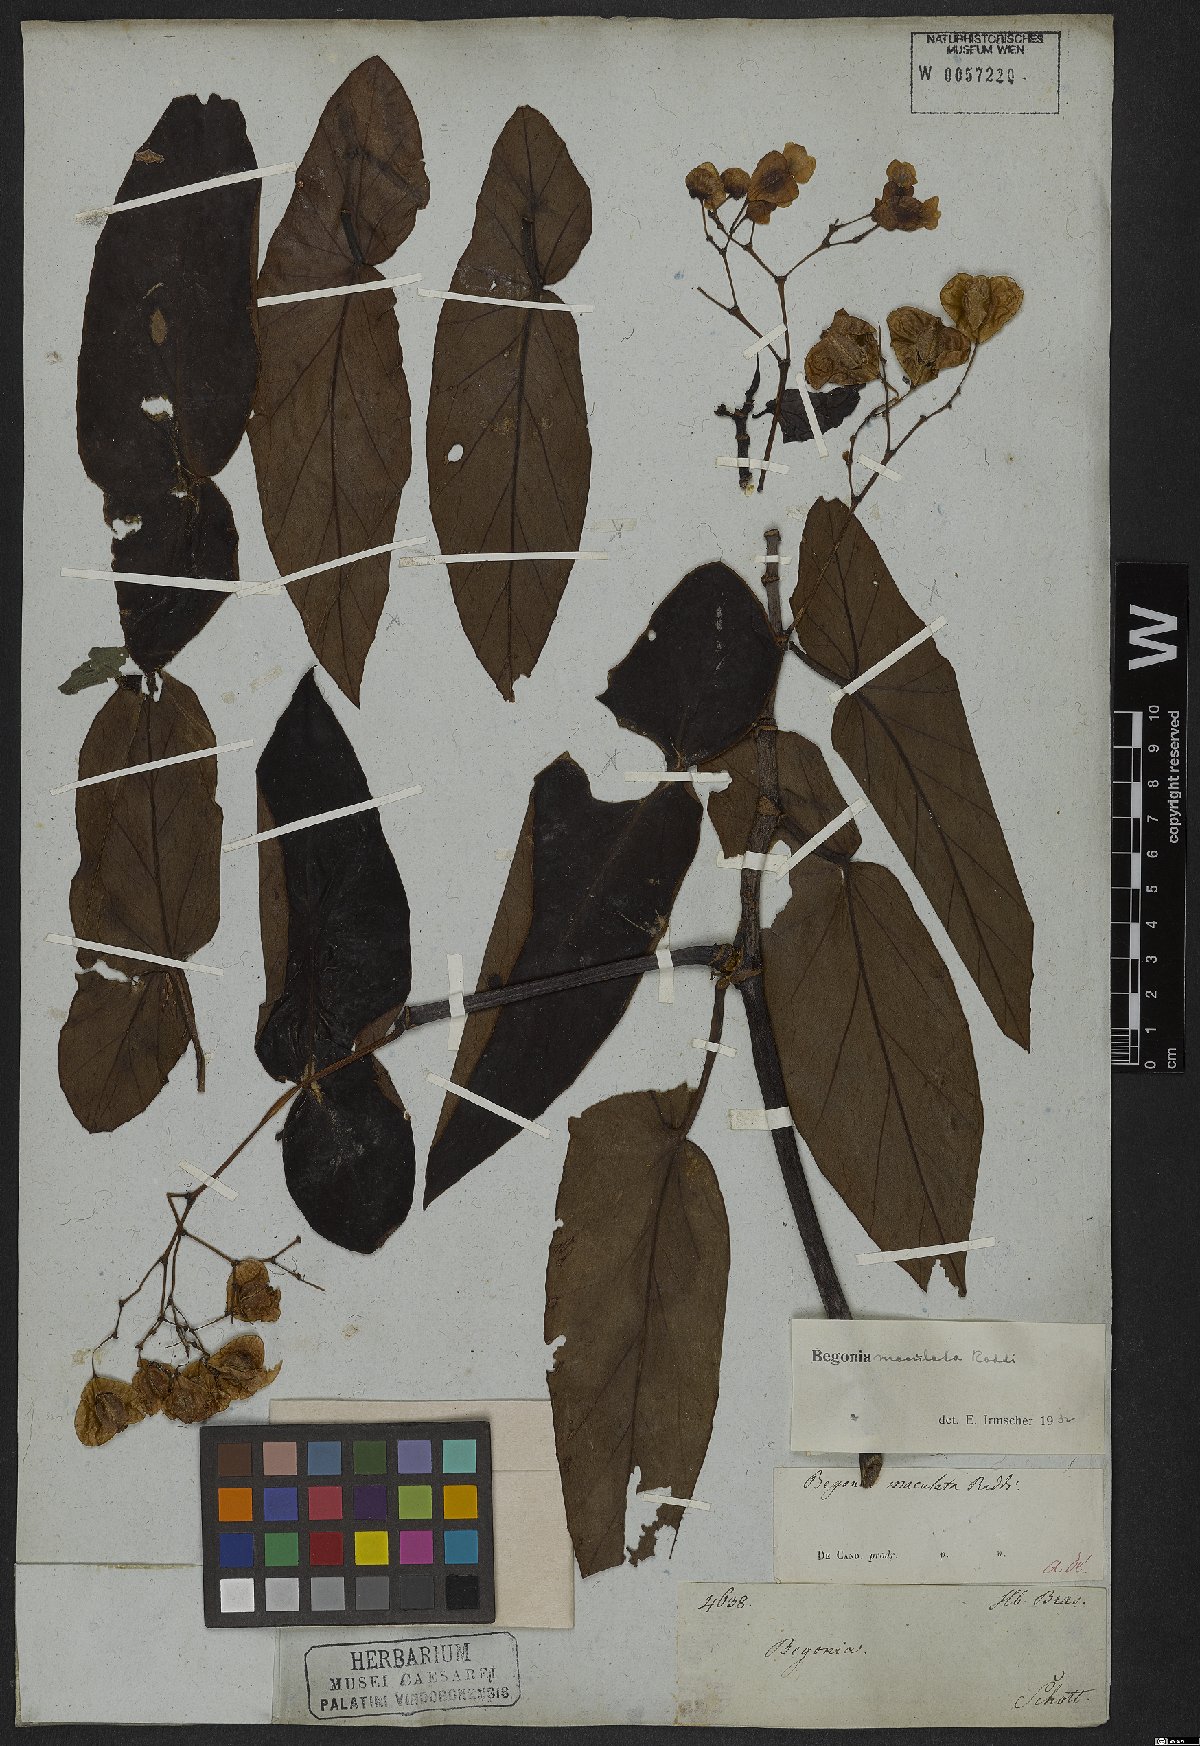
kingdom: Plantae
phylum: Tracheophyta
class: Magnoliopsida
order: Cucurbitales
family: Begoniaceae
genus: Begonia
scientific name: Begonia maculata
